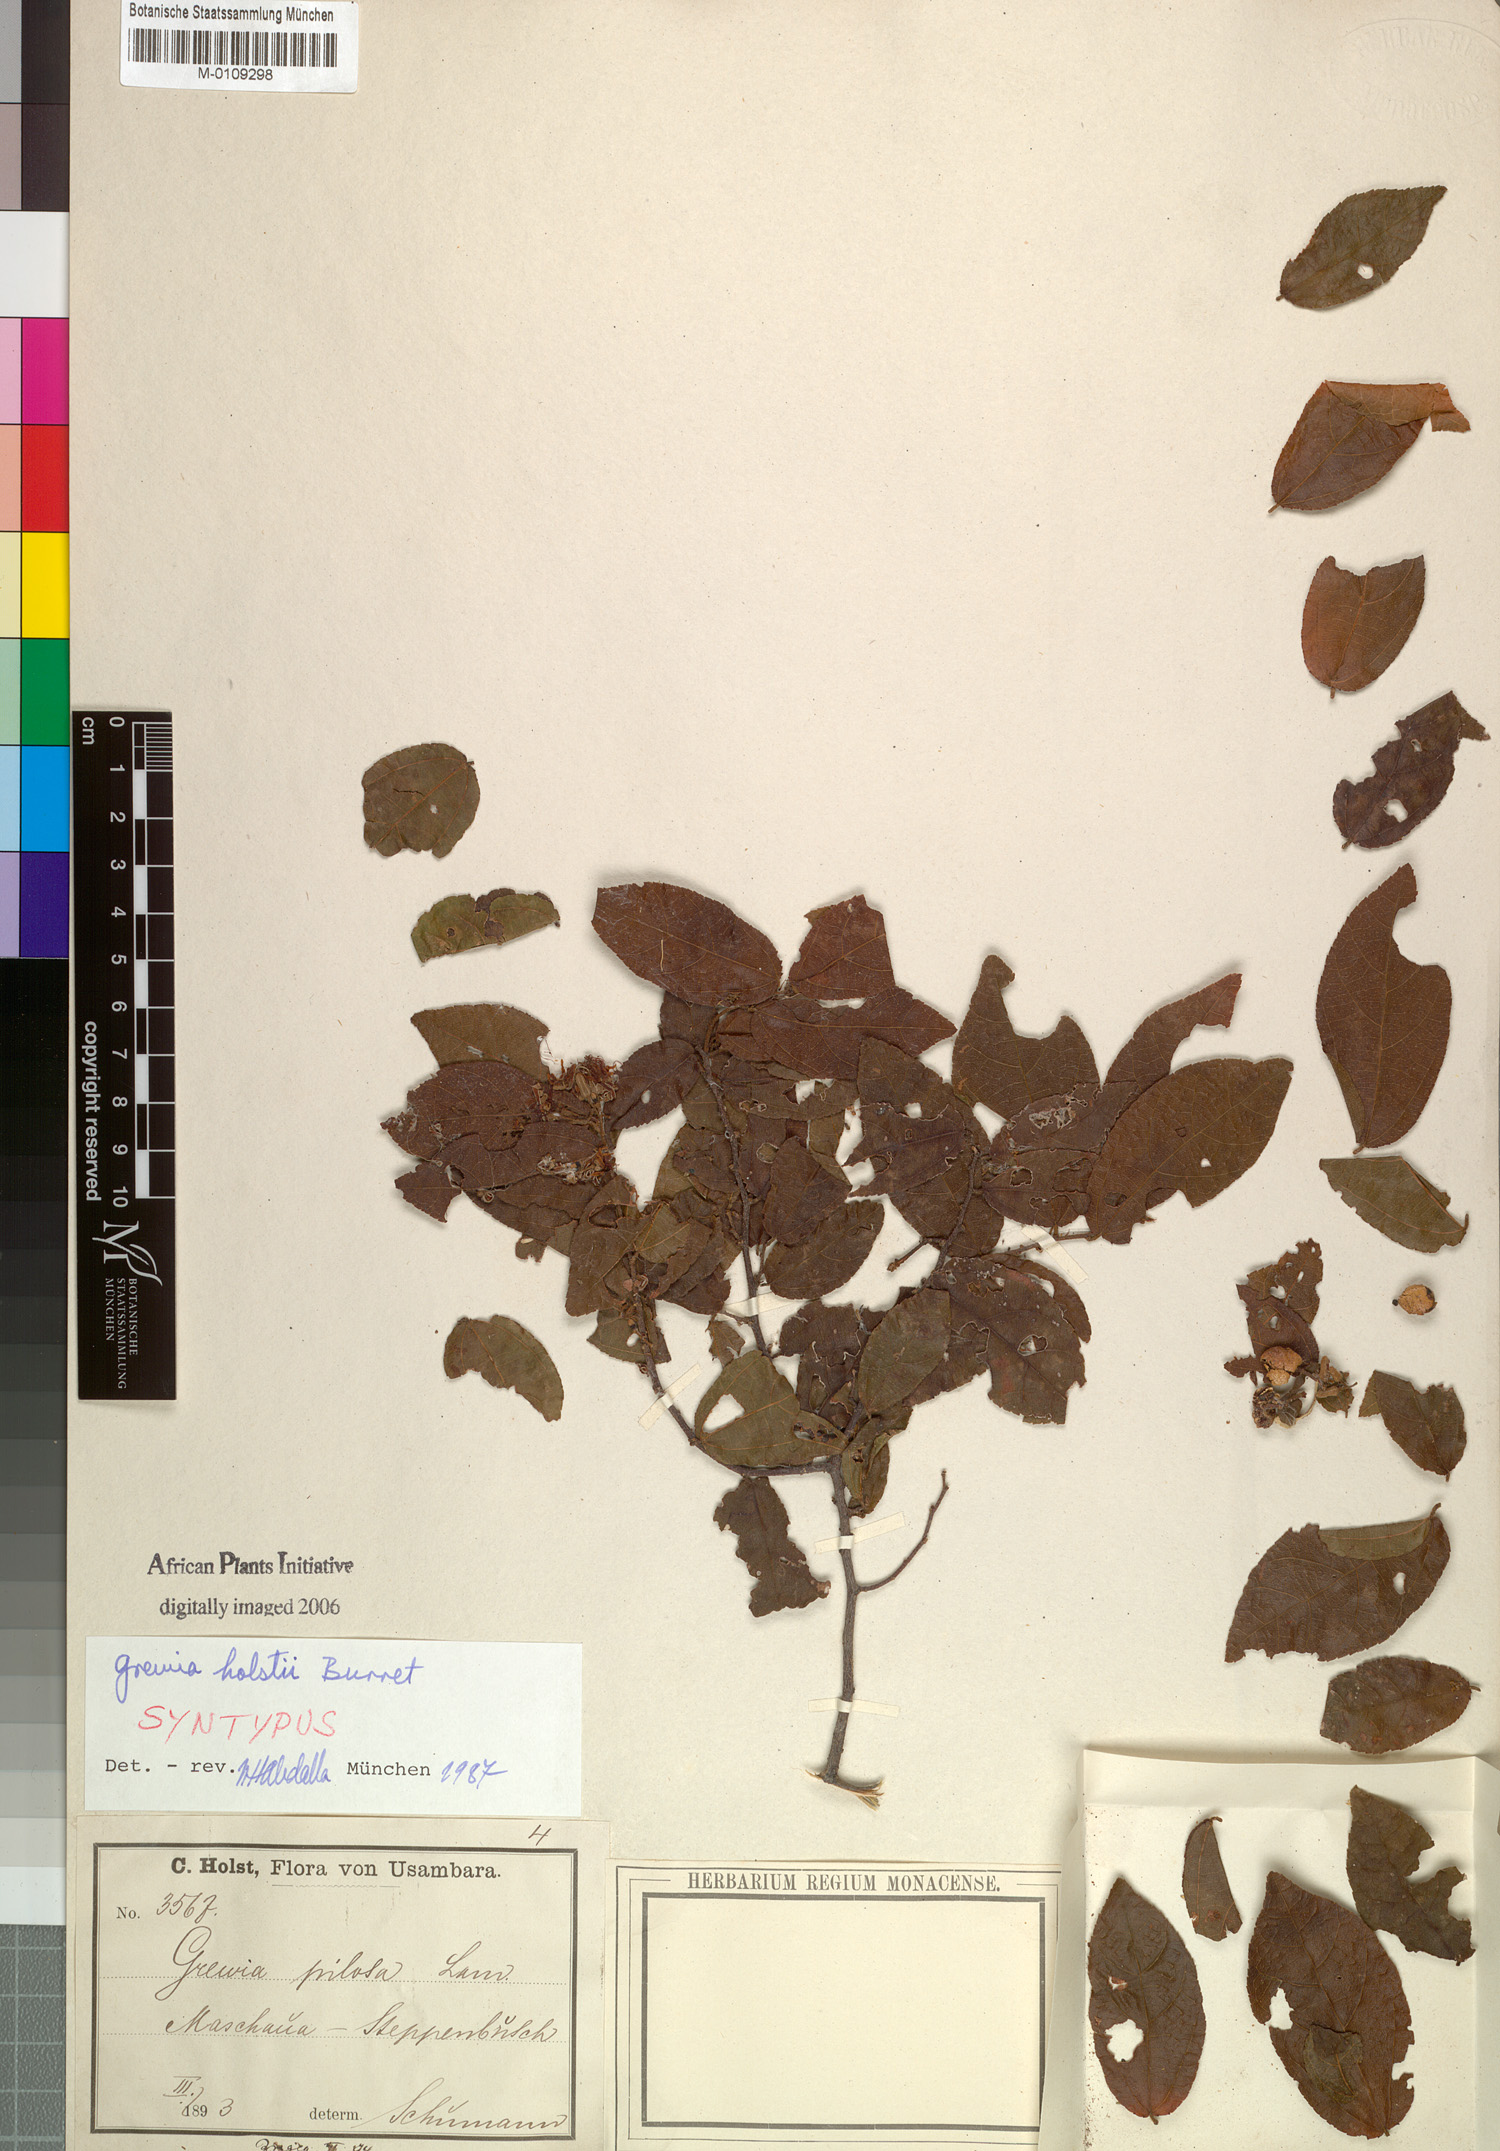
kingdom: Plantae
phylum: Tracheophyta
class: Magnoliopsida
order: Malvales
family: Malvaceae
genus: Grewia
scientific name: Grewia holstii
